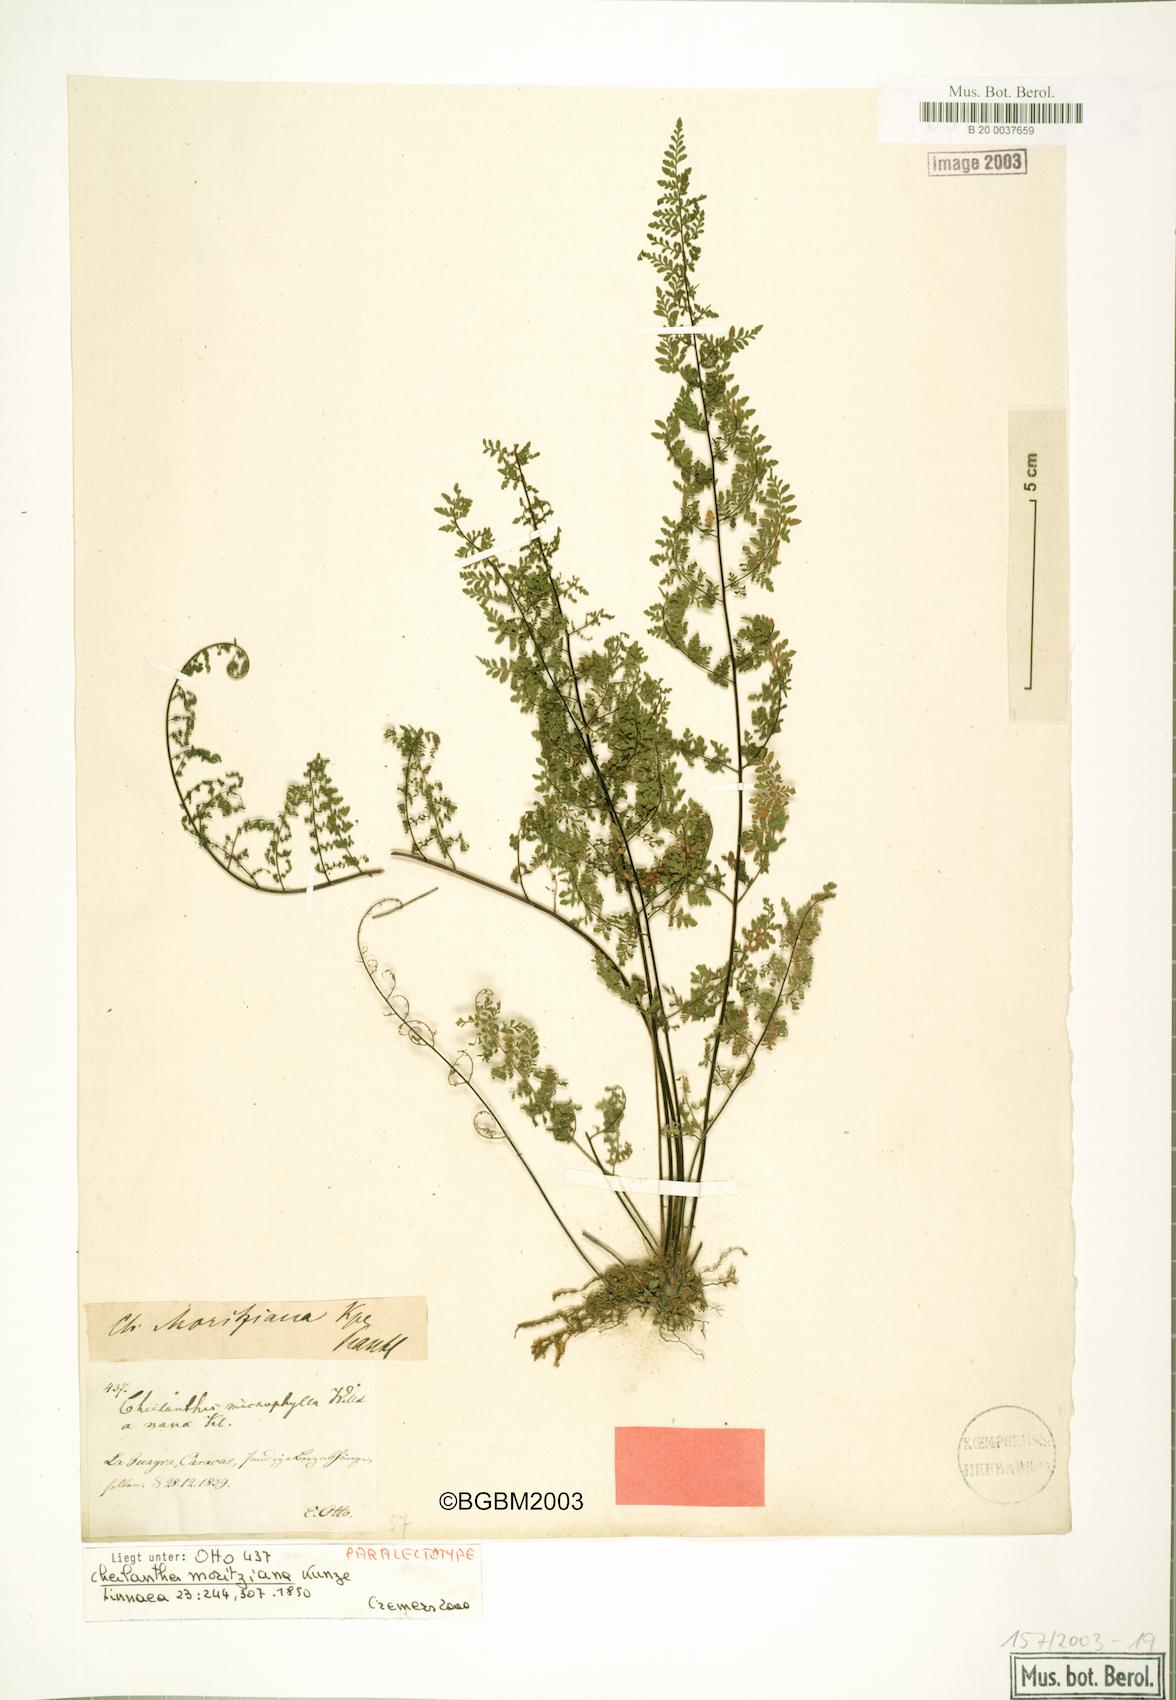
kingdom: Plantae
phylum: Tracheophyta
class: Polypodiopsida
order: Polypodiales
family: Pteridaceae
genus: Myriopteris
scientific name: Myriopteris moritziana
